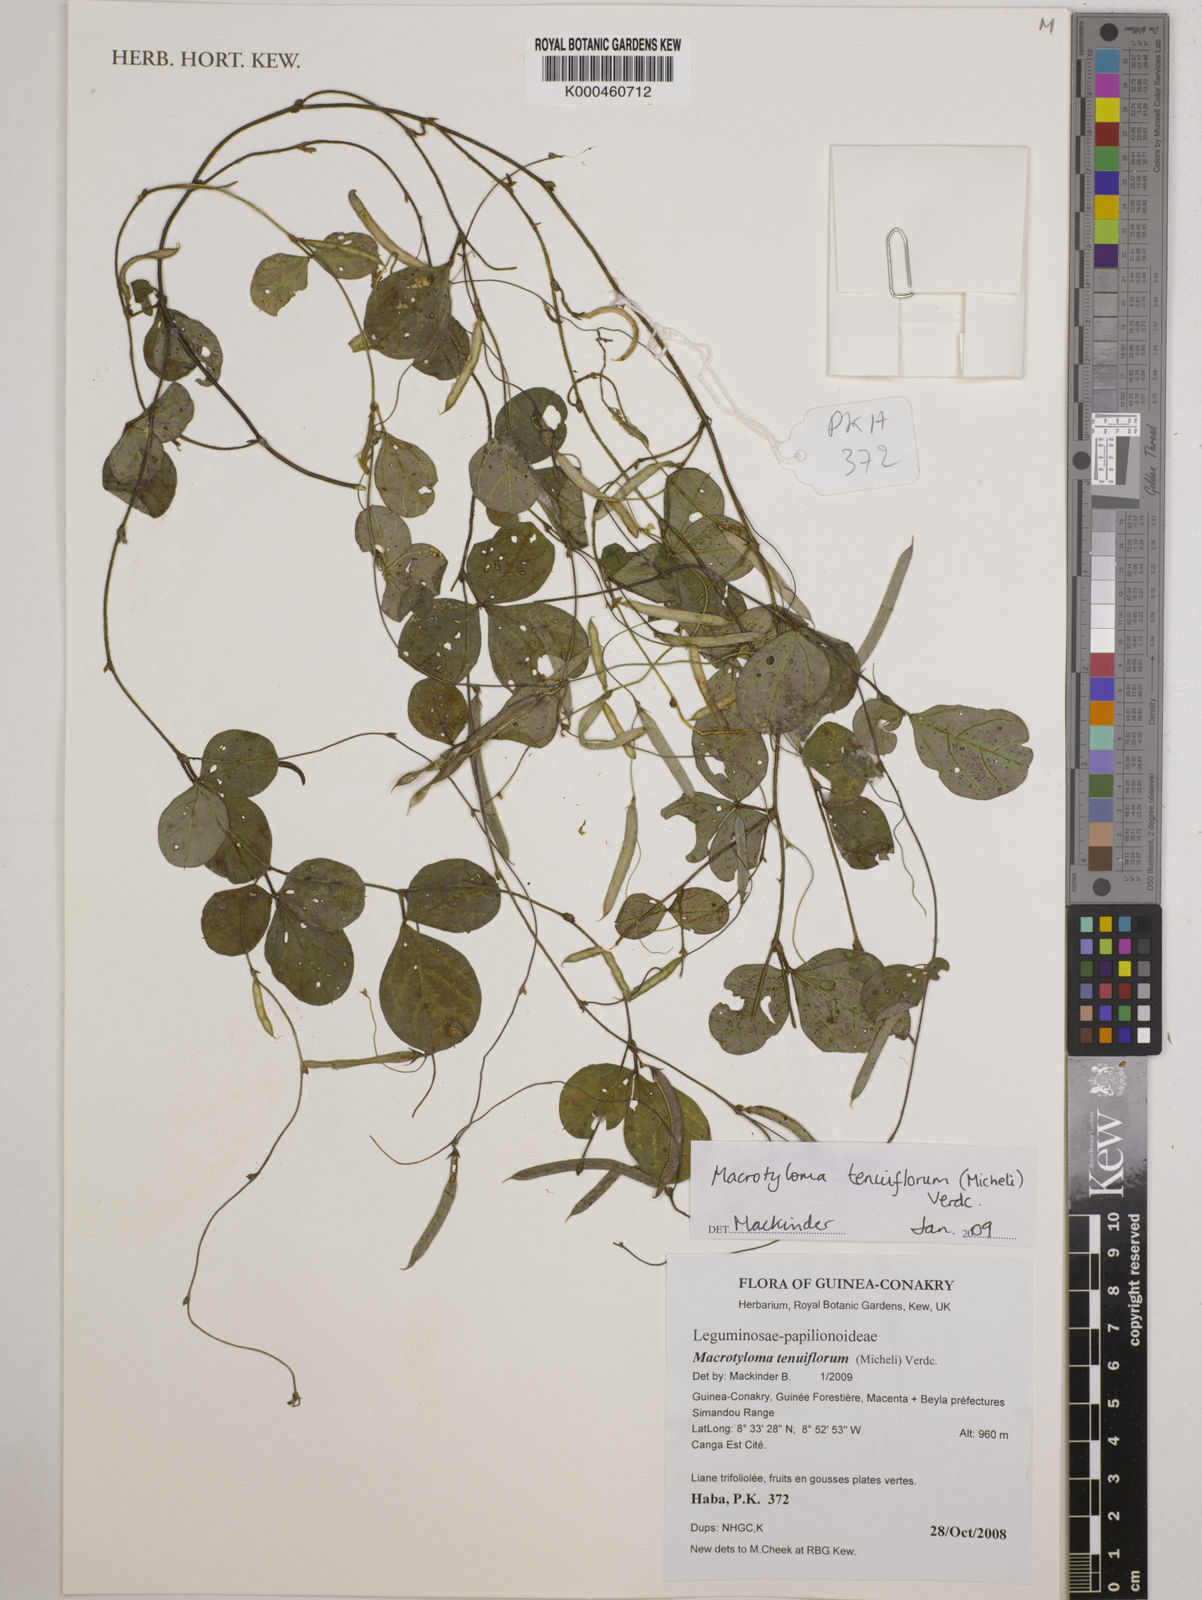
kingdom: Plantae
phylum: Tracheophyta
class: Magnoliopsida
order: Fabales
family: Fabaceae
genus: Macrotyloma
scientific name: Macrotyloma tenuiflorum
